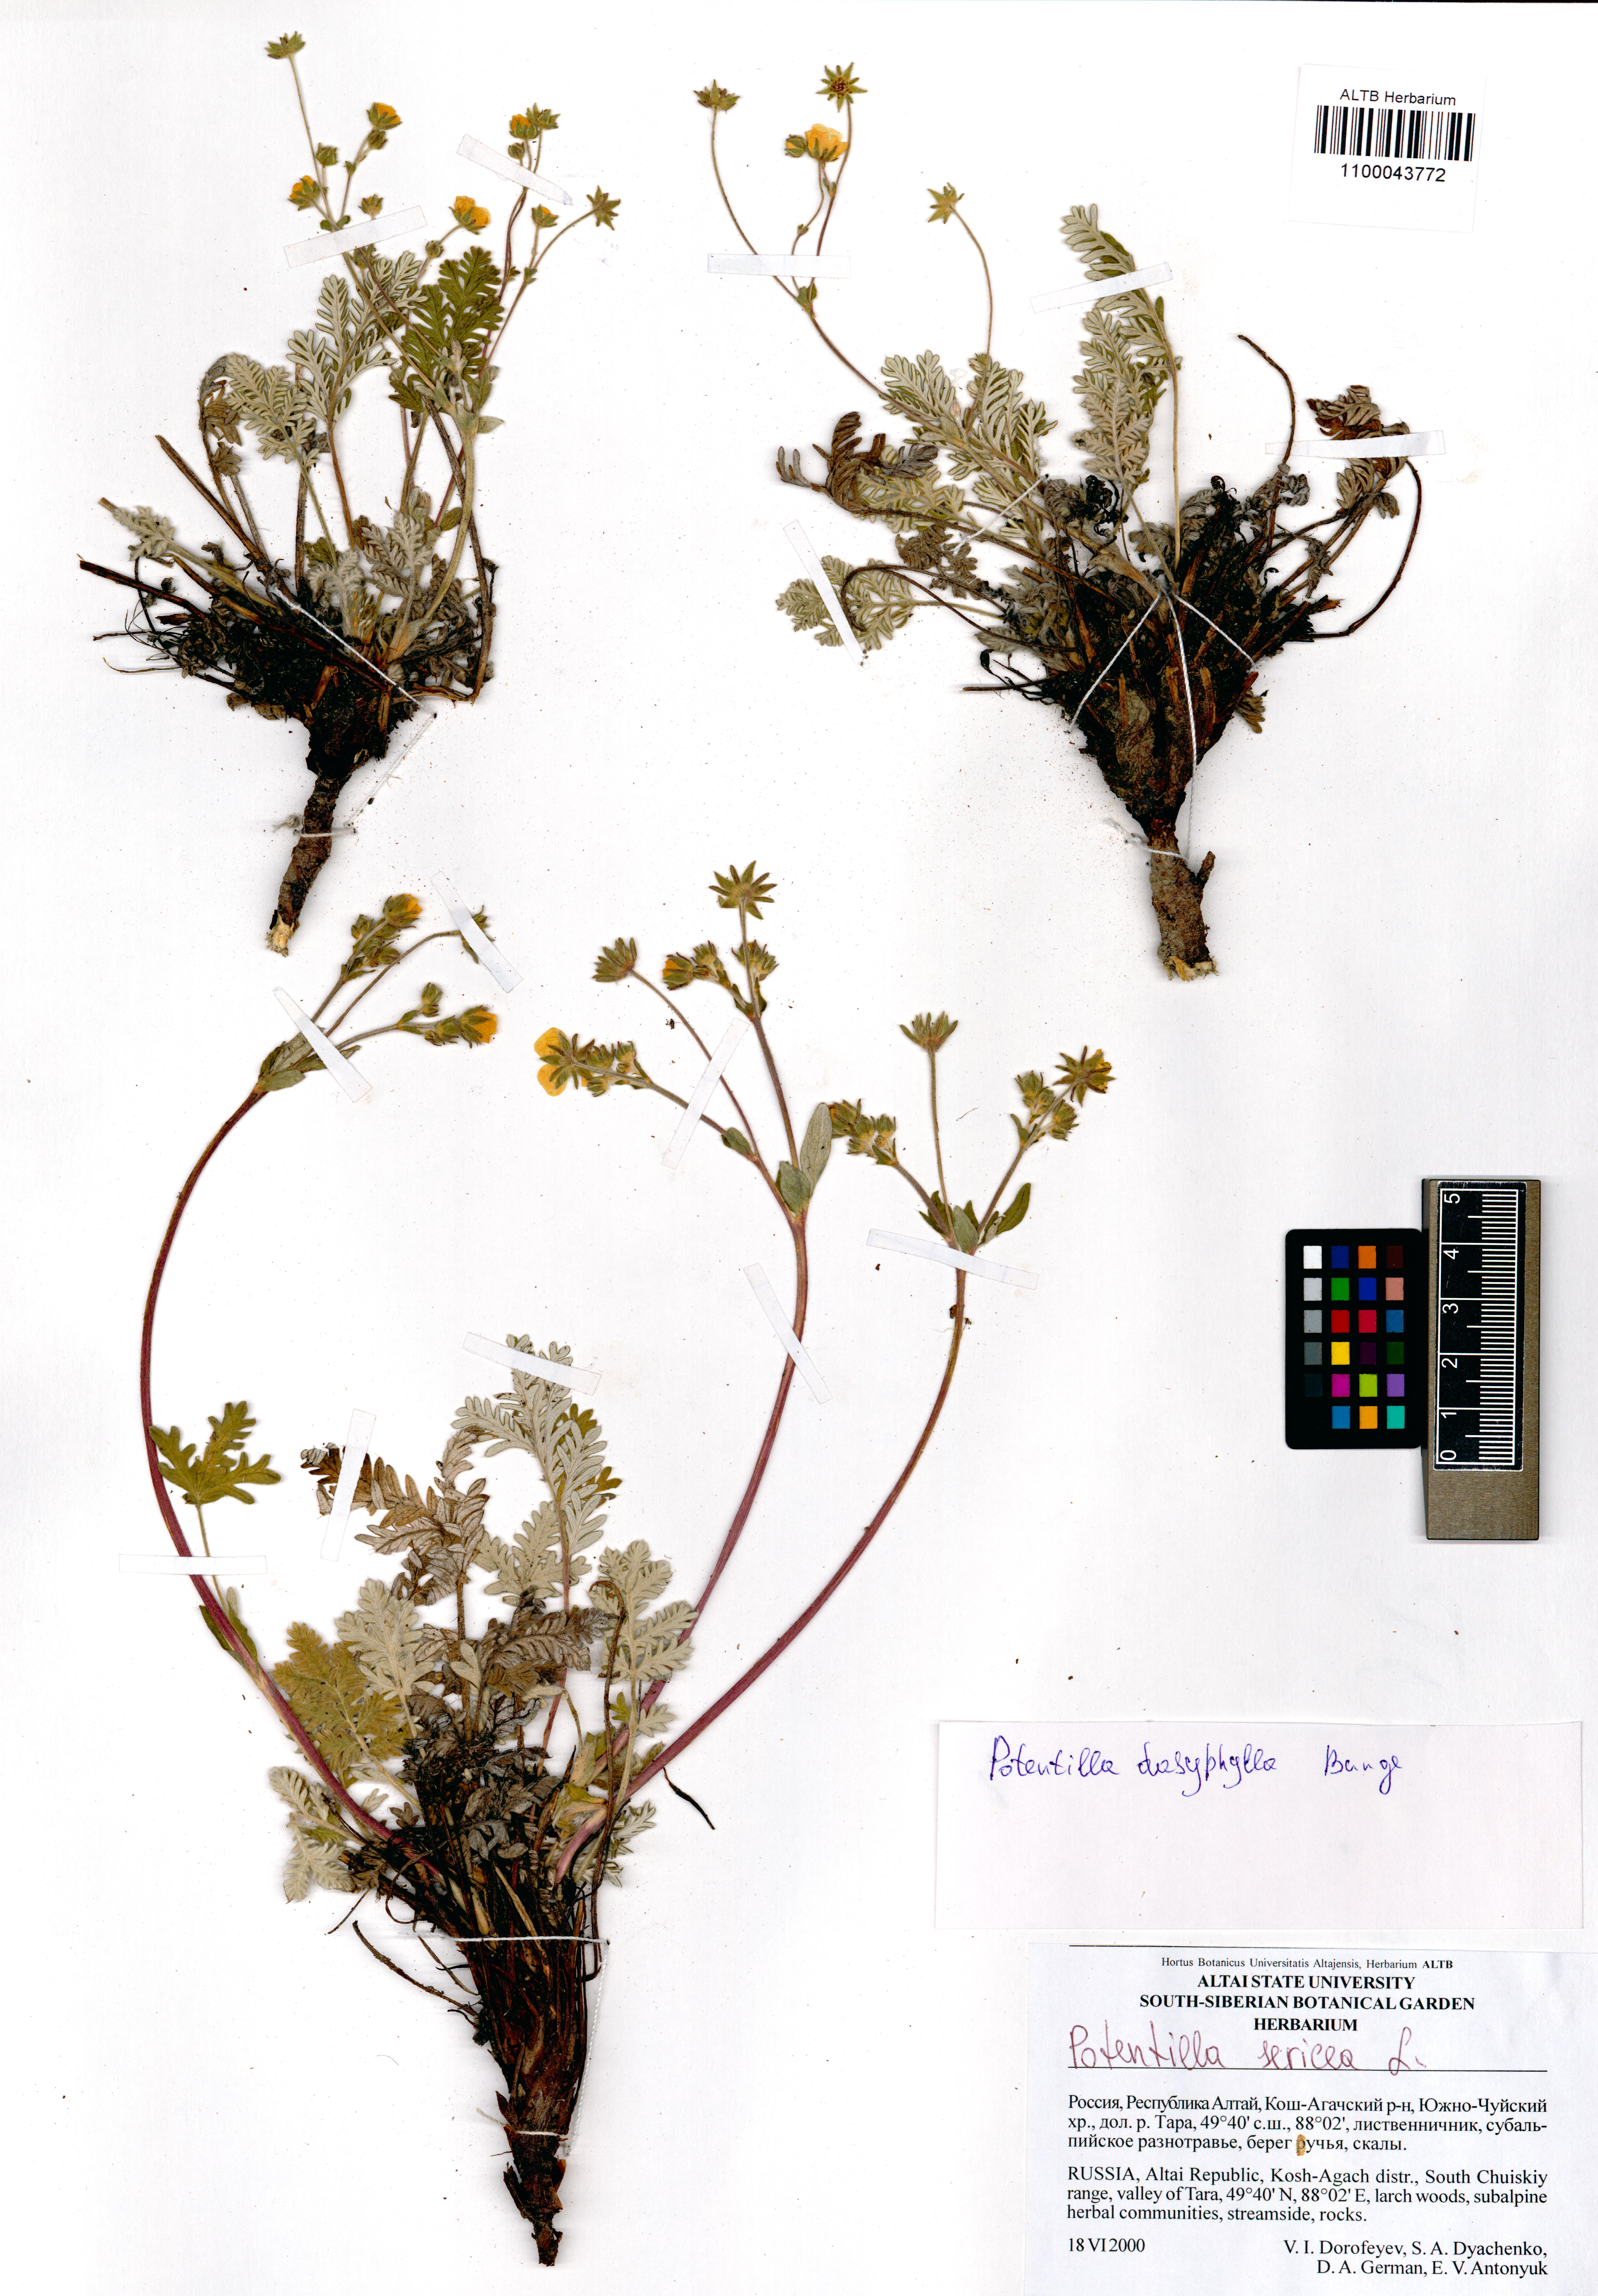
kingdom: Plantae
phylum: Tracheophyta
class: Magnoliopsida
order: Rosales
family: Rosaceae
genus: Potentilla
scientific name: Potentilla sericea
